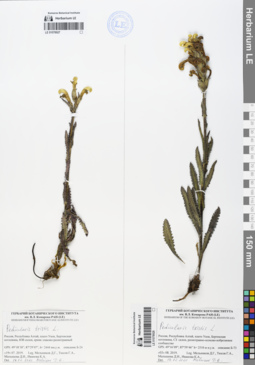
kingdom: Plantae
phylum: Tracheophyta
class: Magnoliopsida
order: Lamiales
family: Orobanchaceae
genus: Pedicularis
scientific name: Pedicularis tristis
